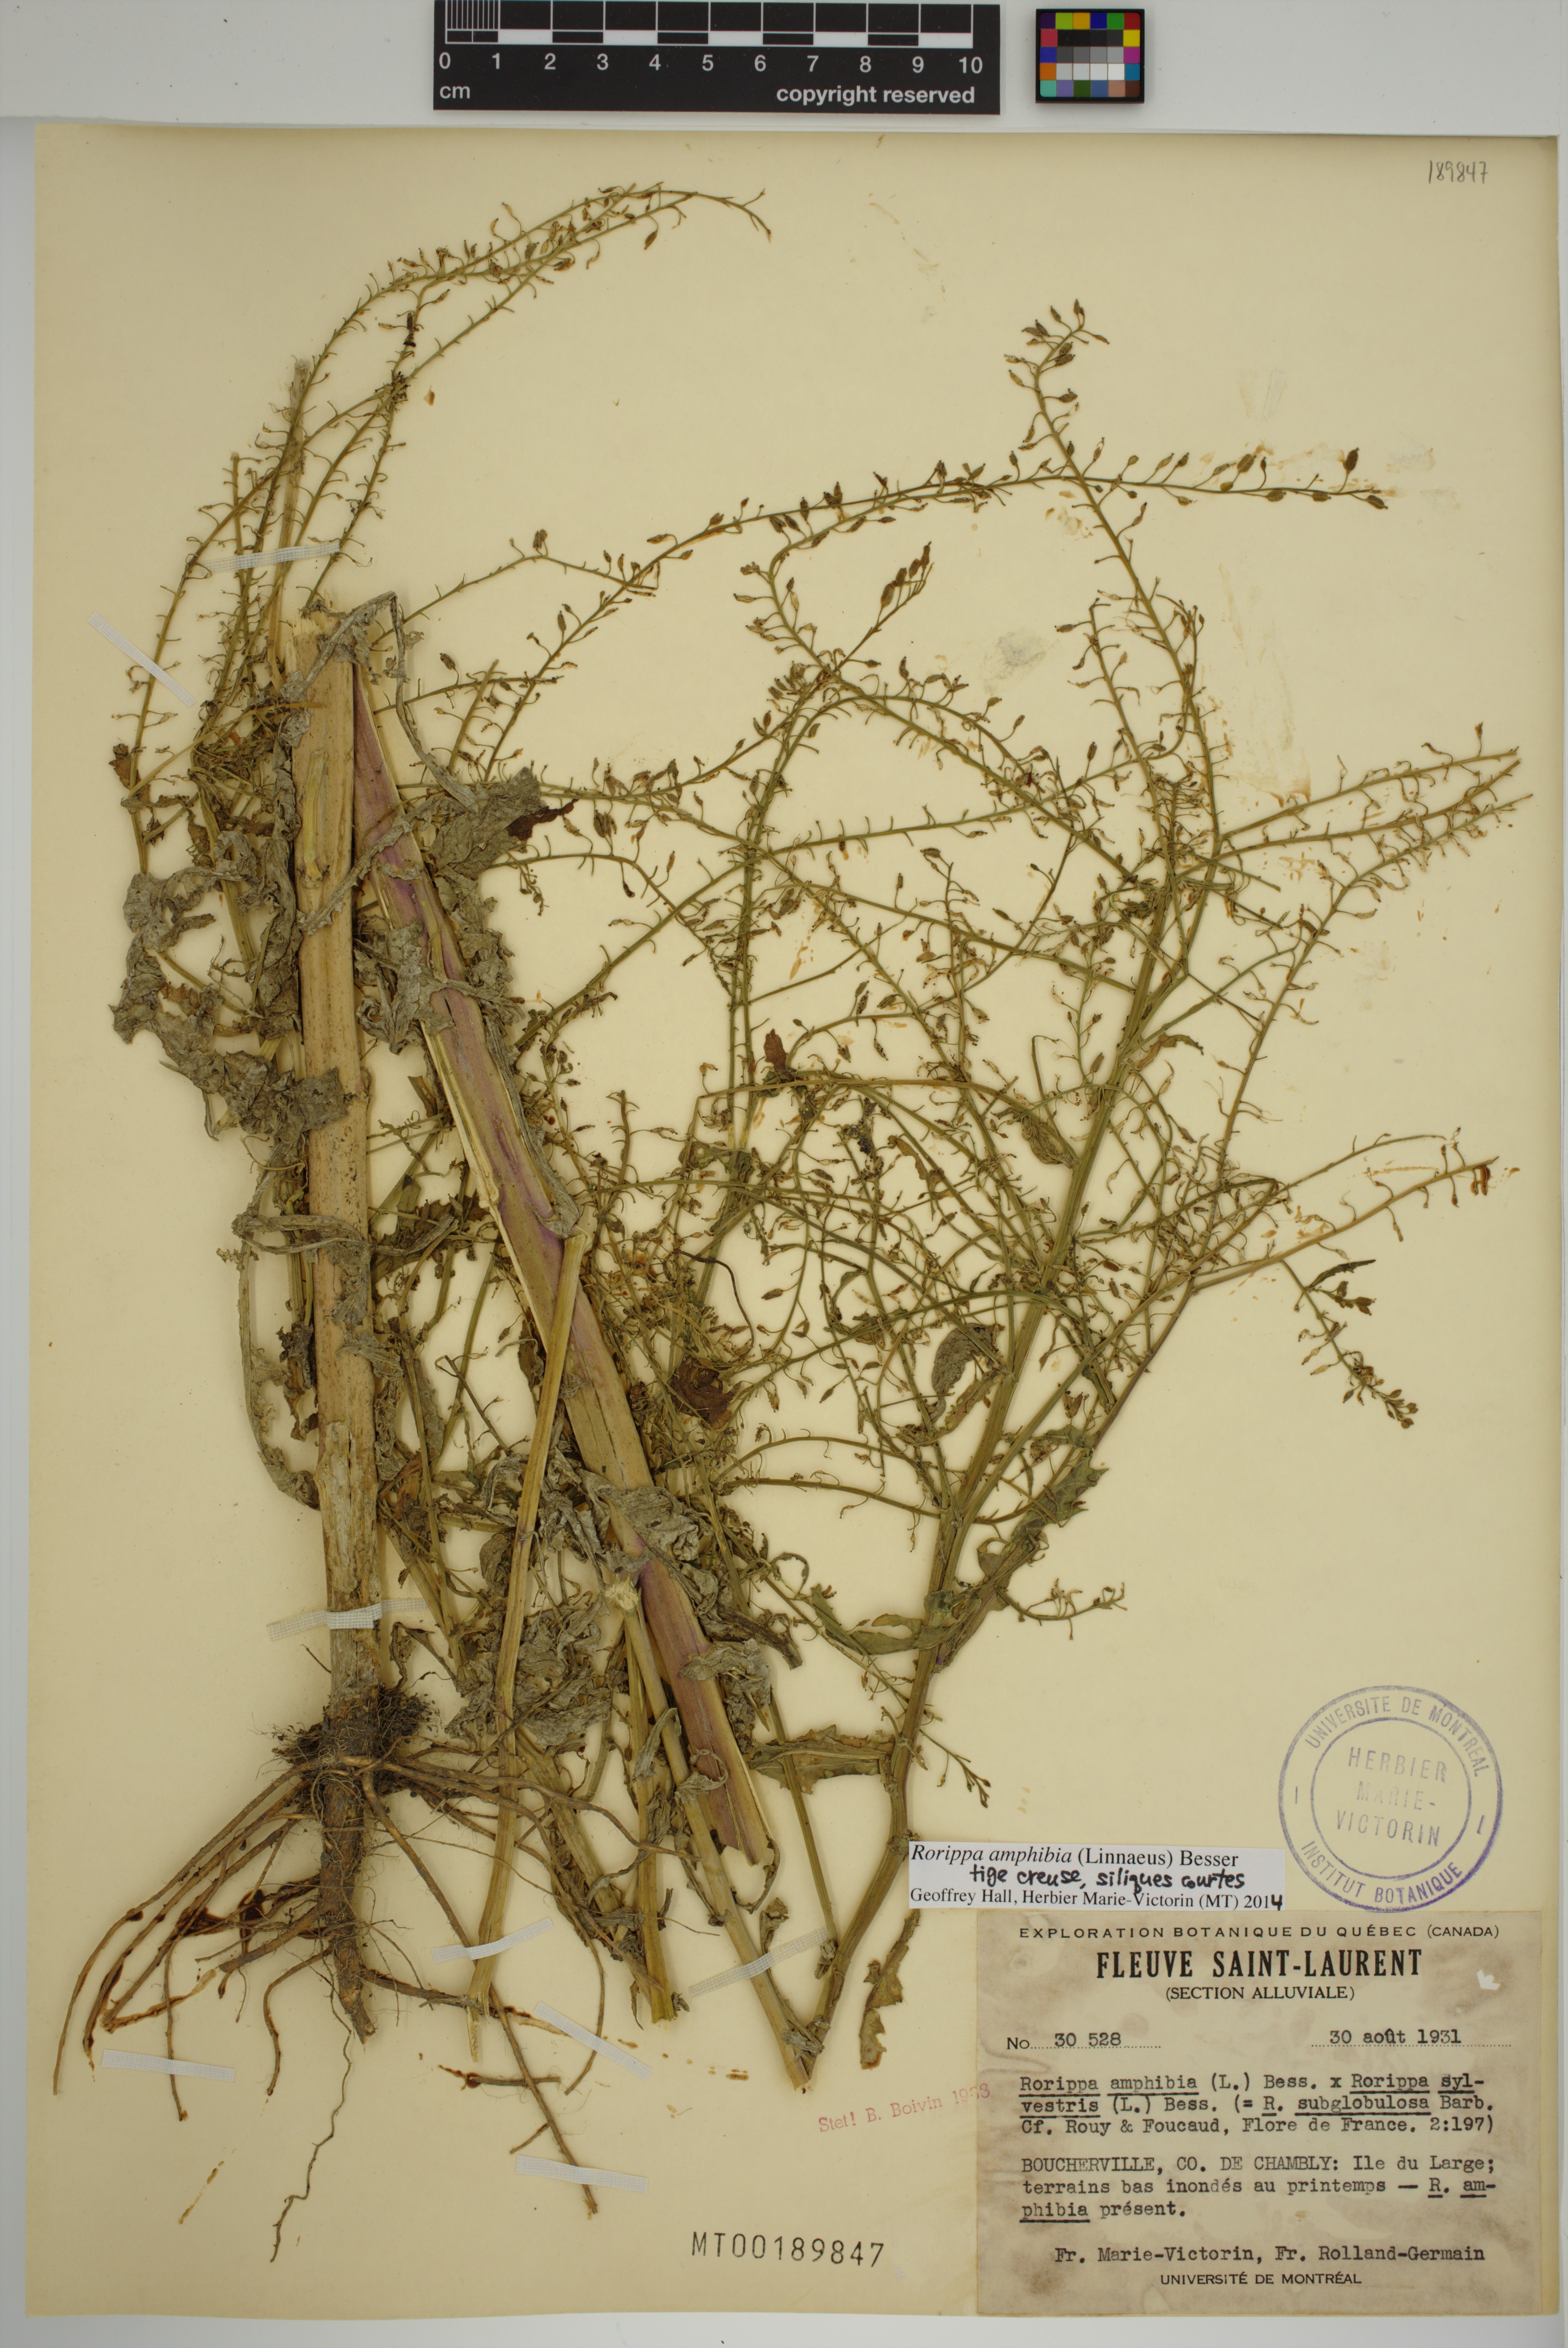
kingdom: Plantae
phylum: Tracheophyta
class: Magnoliopsida
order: Brassicales
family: Brassicaceae
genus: Rorippa
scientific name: Rorippa amphibia
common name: Great yellow-cress
